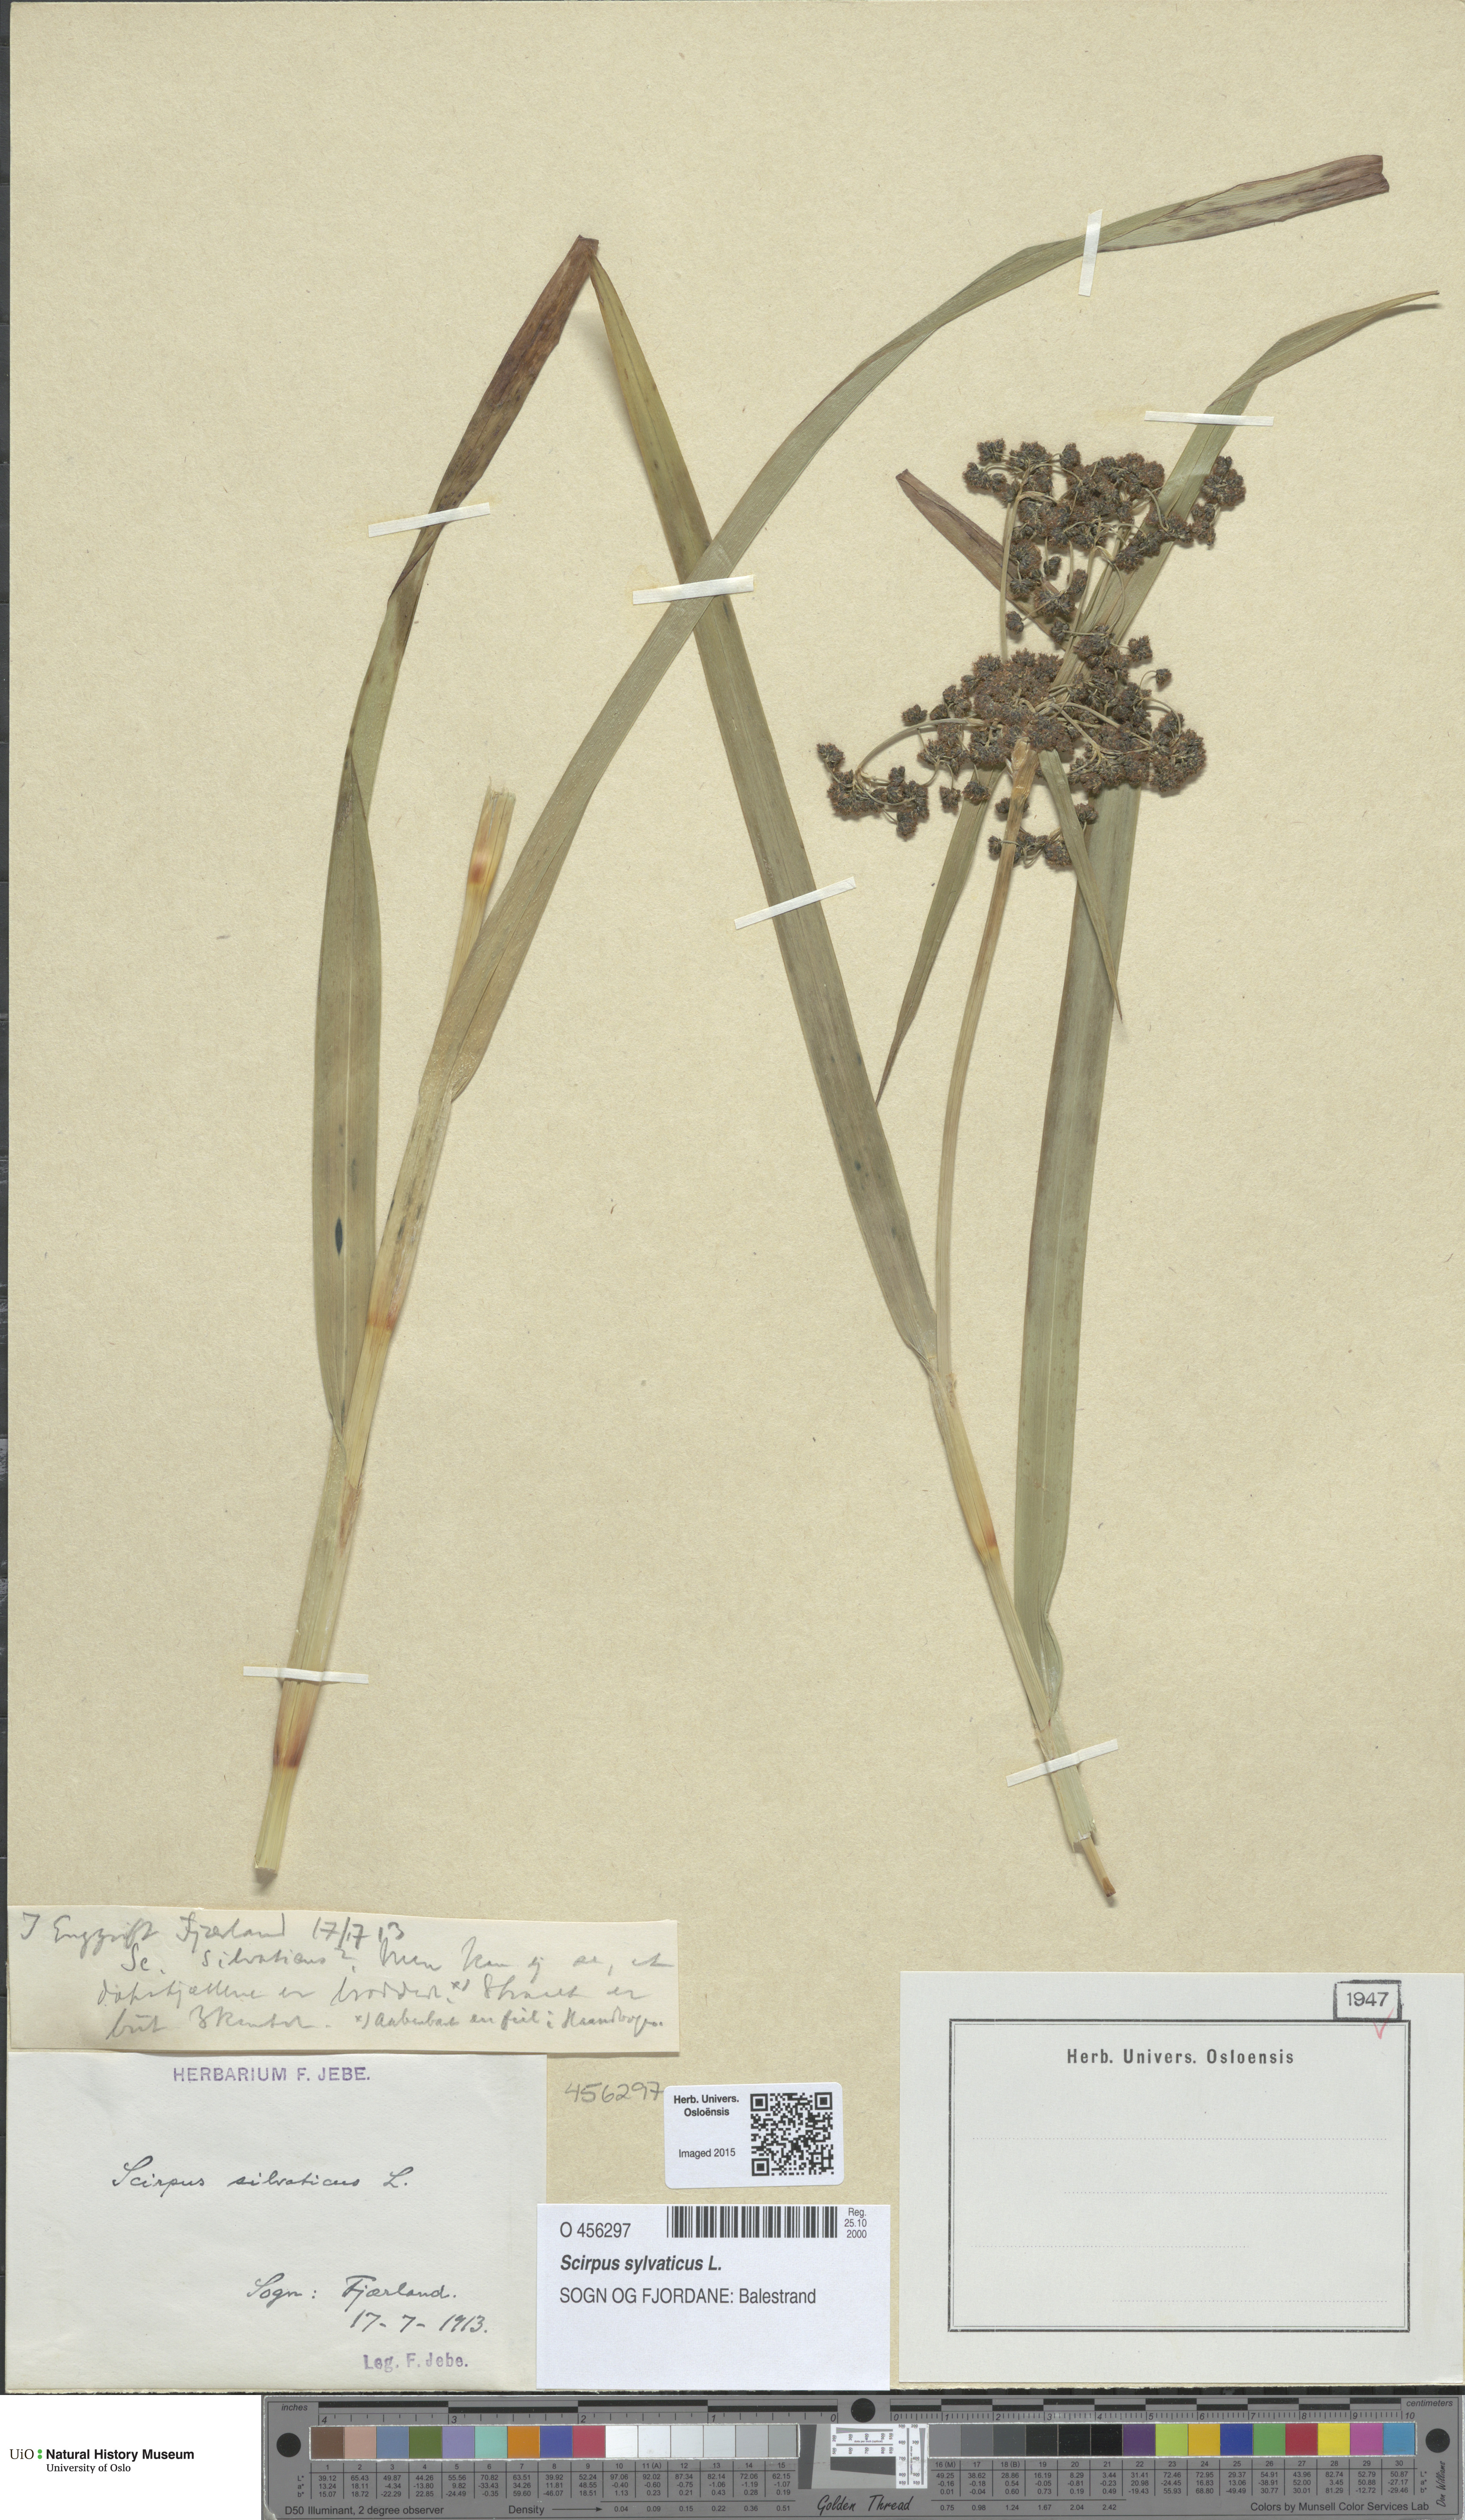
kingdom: Plantae
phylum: Tracheophyta
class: Liliopsida
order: Poales
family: Cyperaceae
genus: Scirpus
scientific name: Scirpus sylvaticus
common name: Wood club-rush
